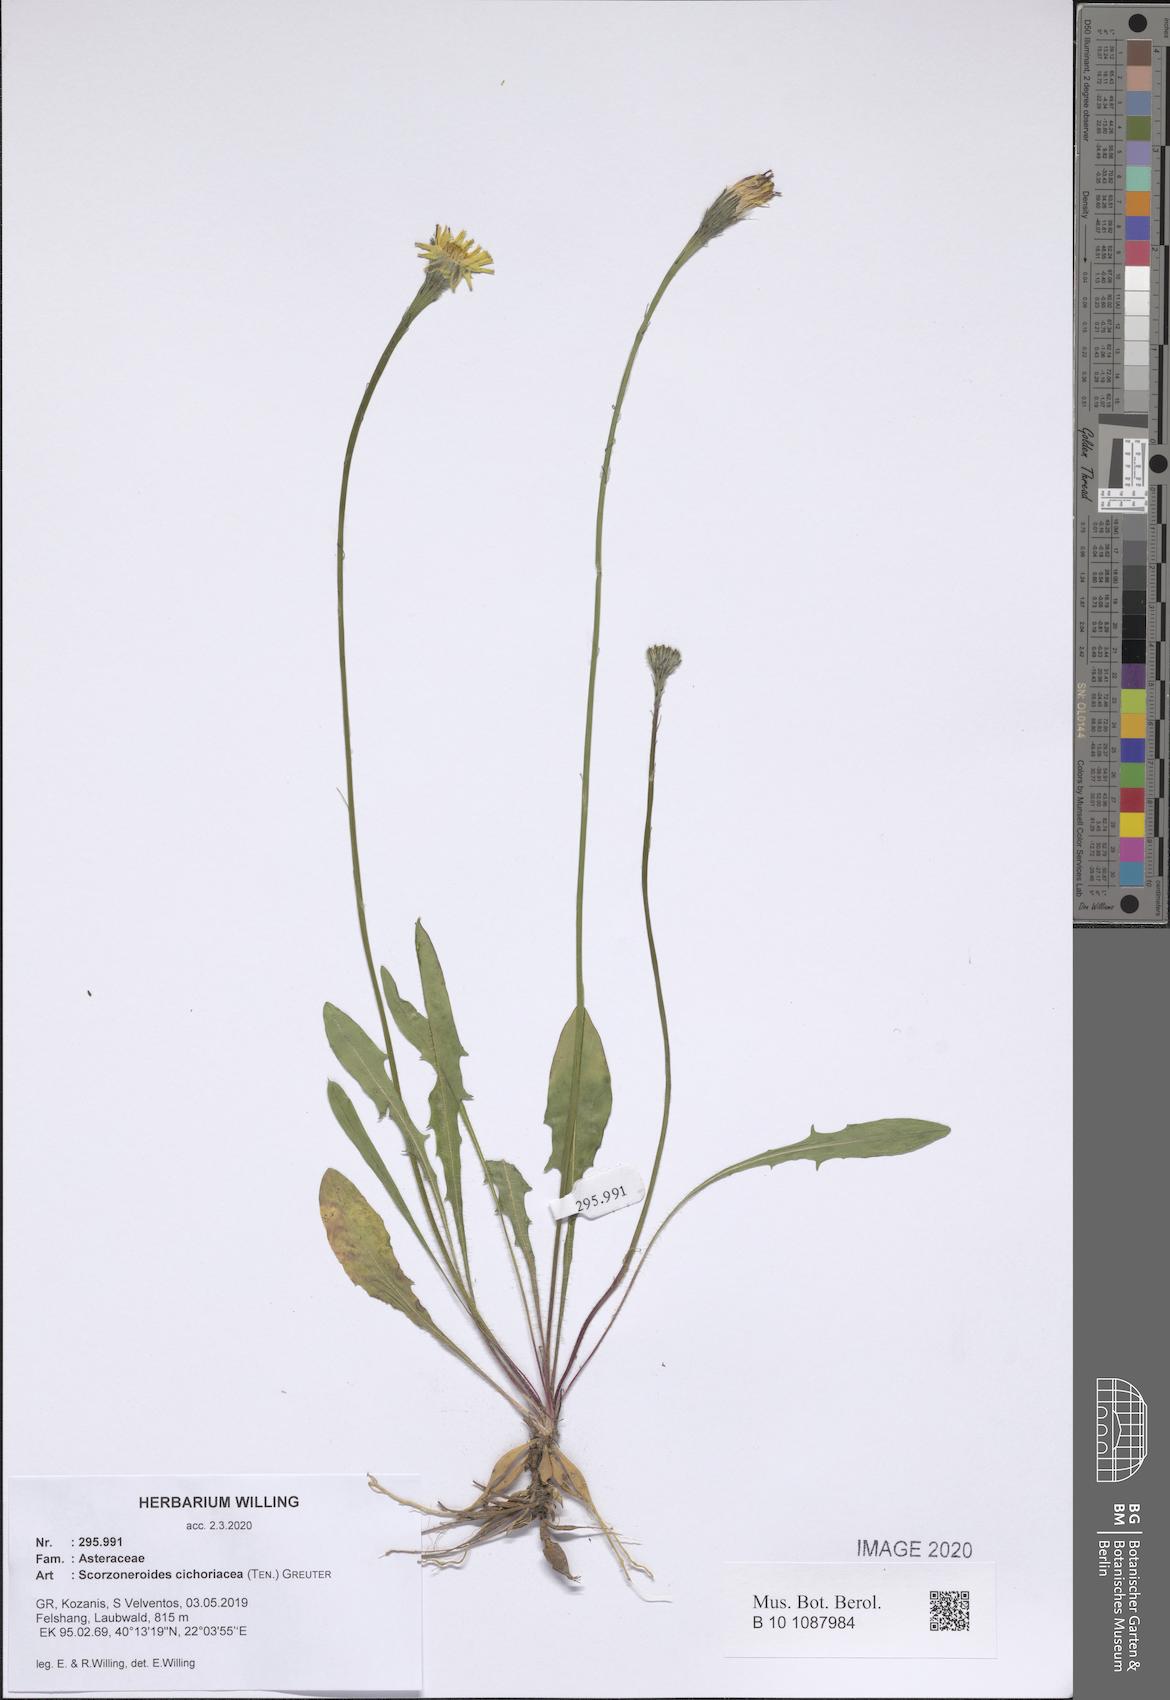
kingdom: Plantae
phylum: Tracheophyta
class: Magnoliopsida
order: Asterales
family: Asteraceae
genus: Scorzoneroides
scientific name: Scorzoneroides cichoriacea
